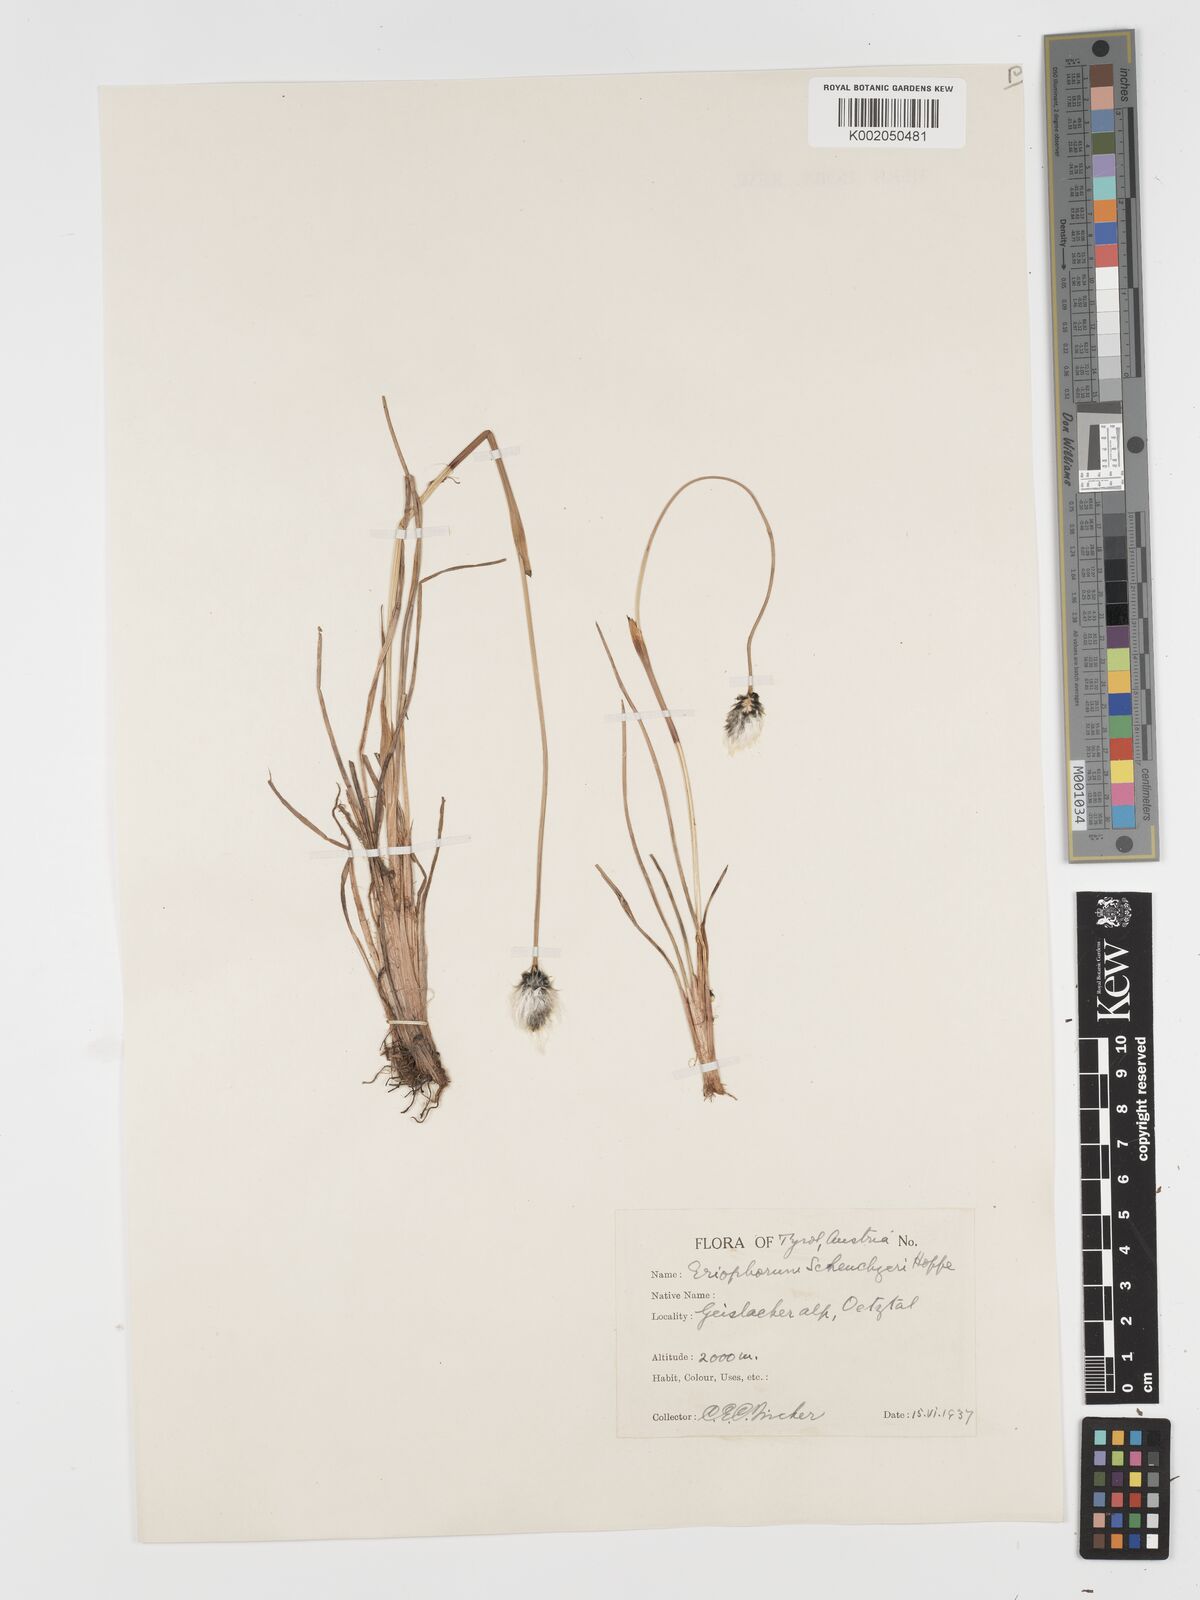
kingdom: Plantae
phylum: Tracheophyta
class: Liliopsida
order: Poales
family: Cyperaceae
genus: Eriophorum
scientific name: Eriophorum scheuchzeri
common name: Scheuchzer's cottongrass
